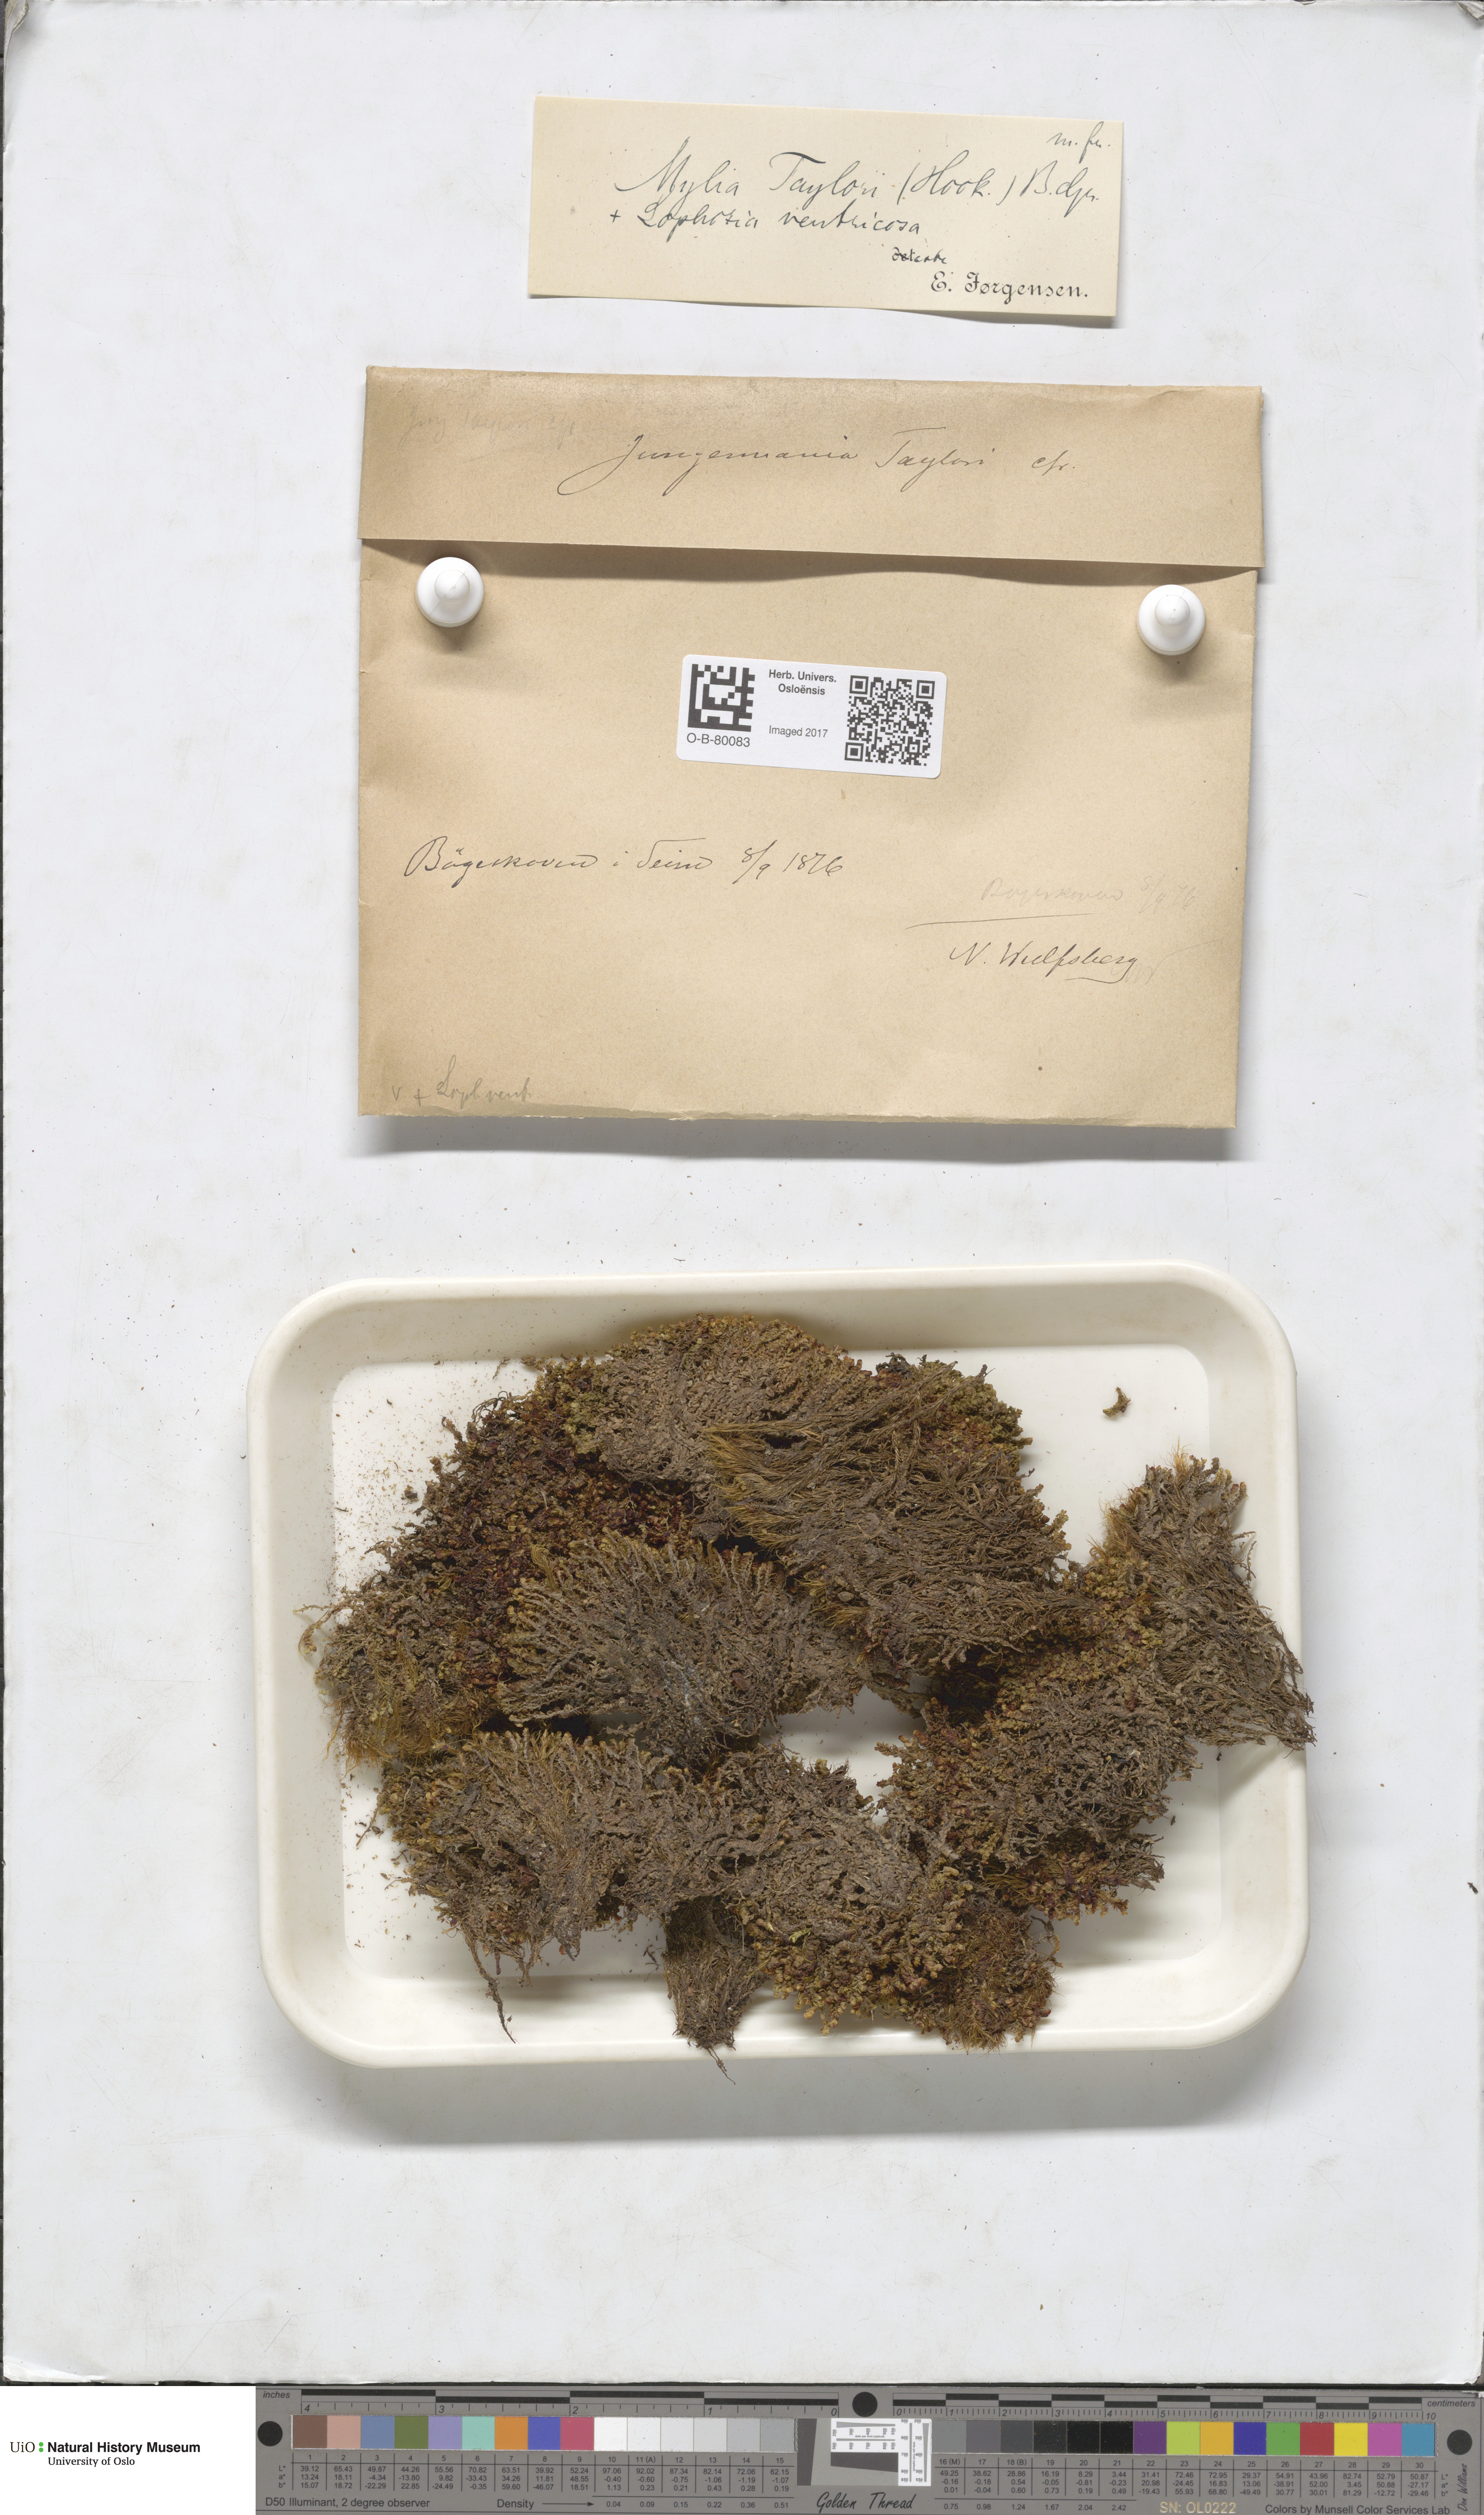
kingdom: Plantae
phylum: Marchantiophyta
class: Jungermanniopsida
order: Jungermanniales
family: Myliaceae
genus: Mylia
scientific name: Mylia taylorii
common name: Taylor s flapwort
